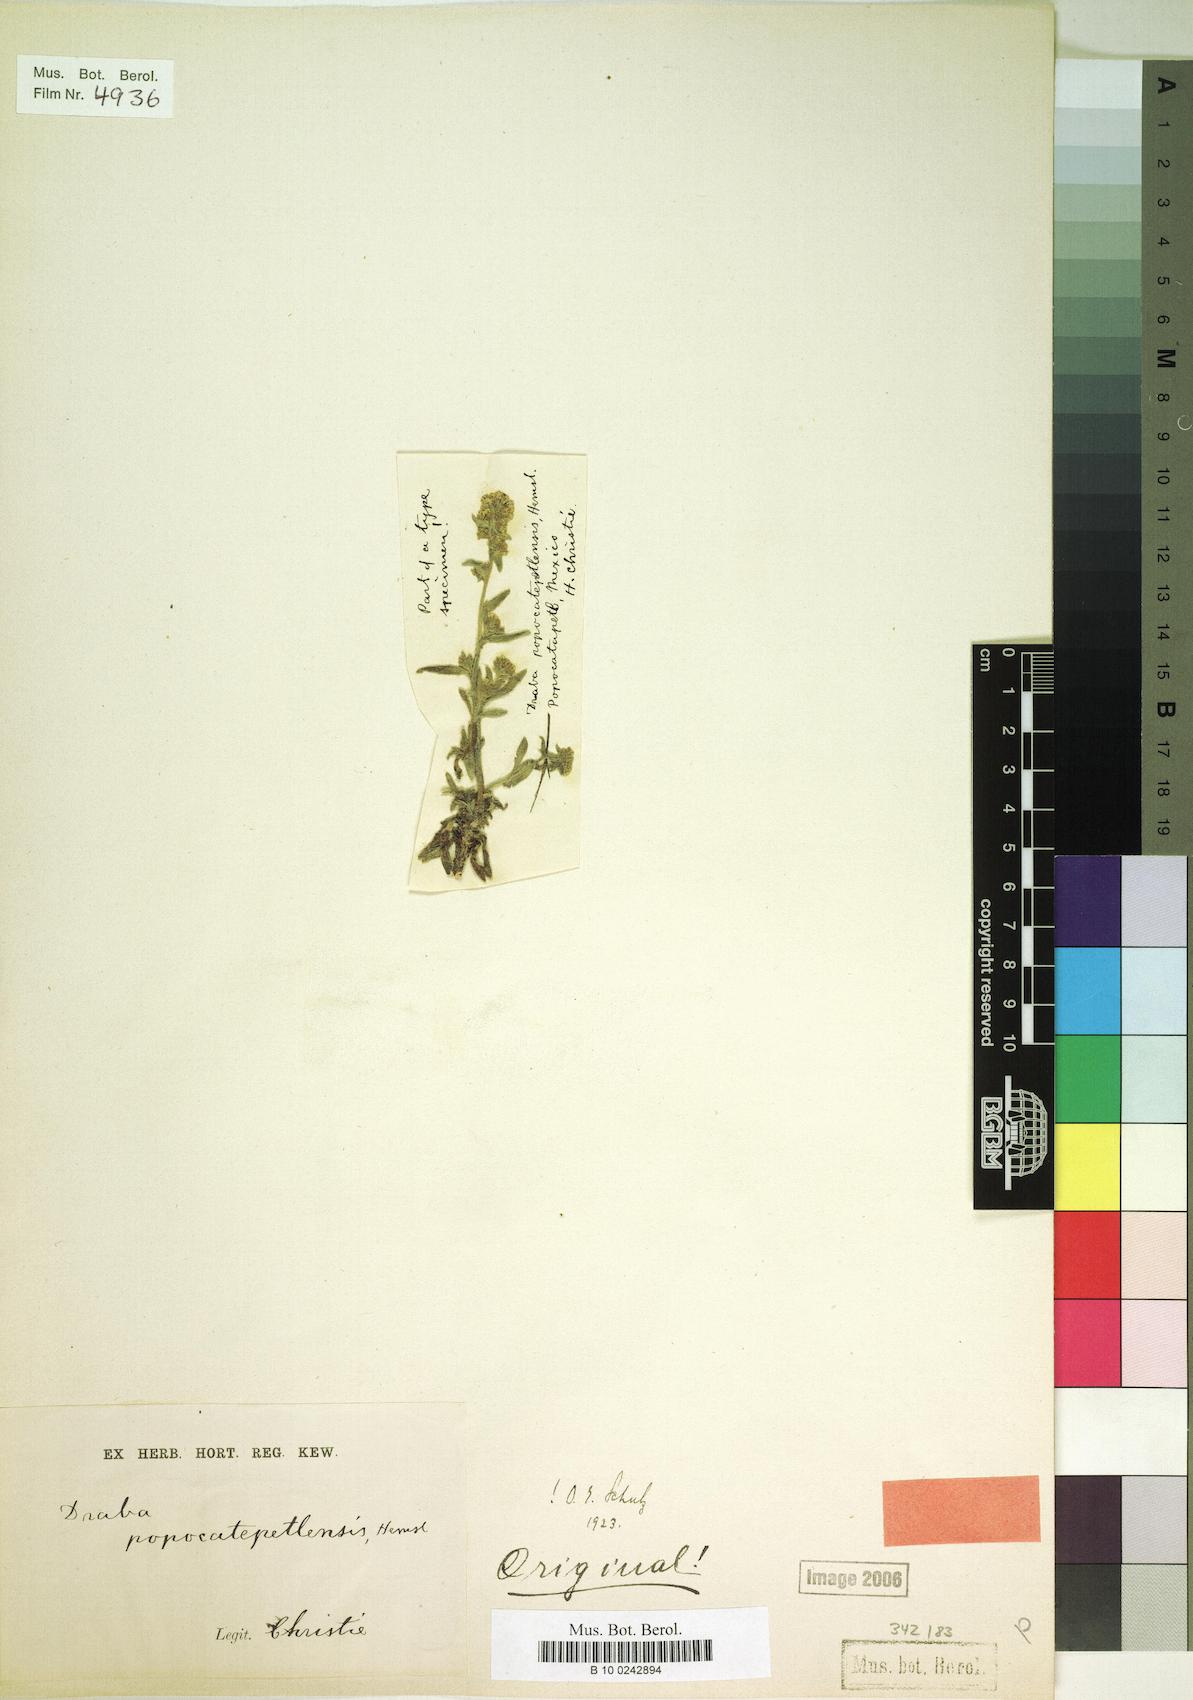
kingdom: Plantae
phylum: Tracheophyta
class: Magnoliopsida
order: Brassicales
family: Brassicaceae
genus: Draba
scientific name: Draba jorullensis
